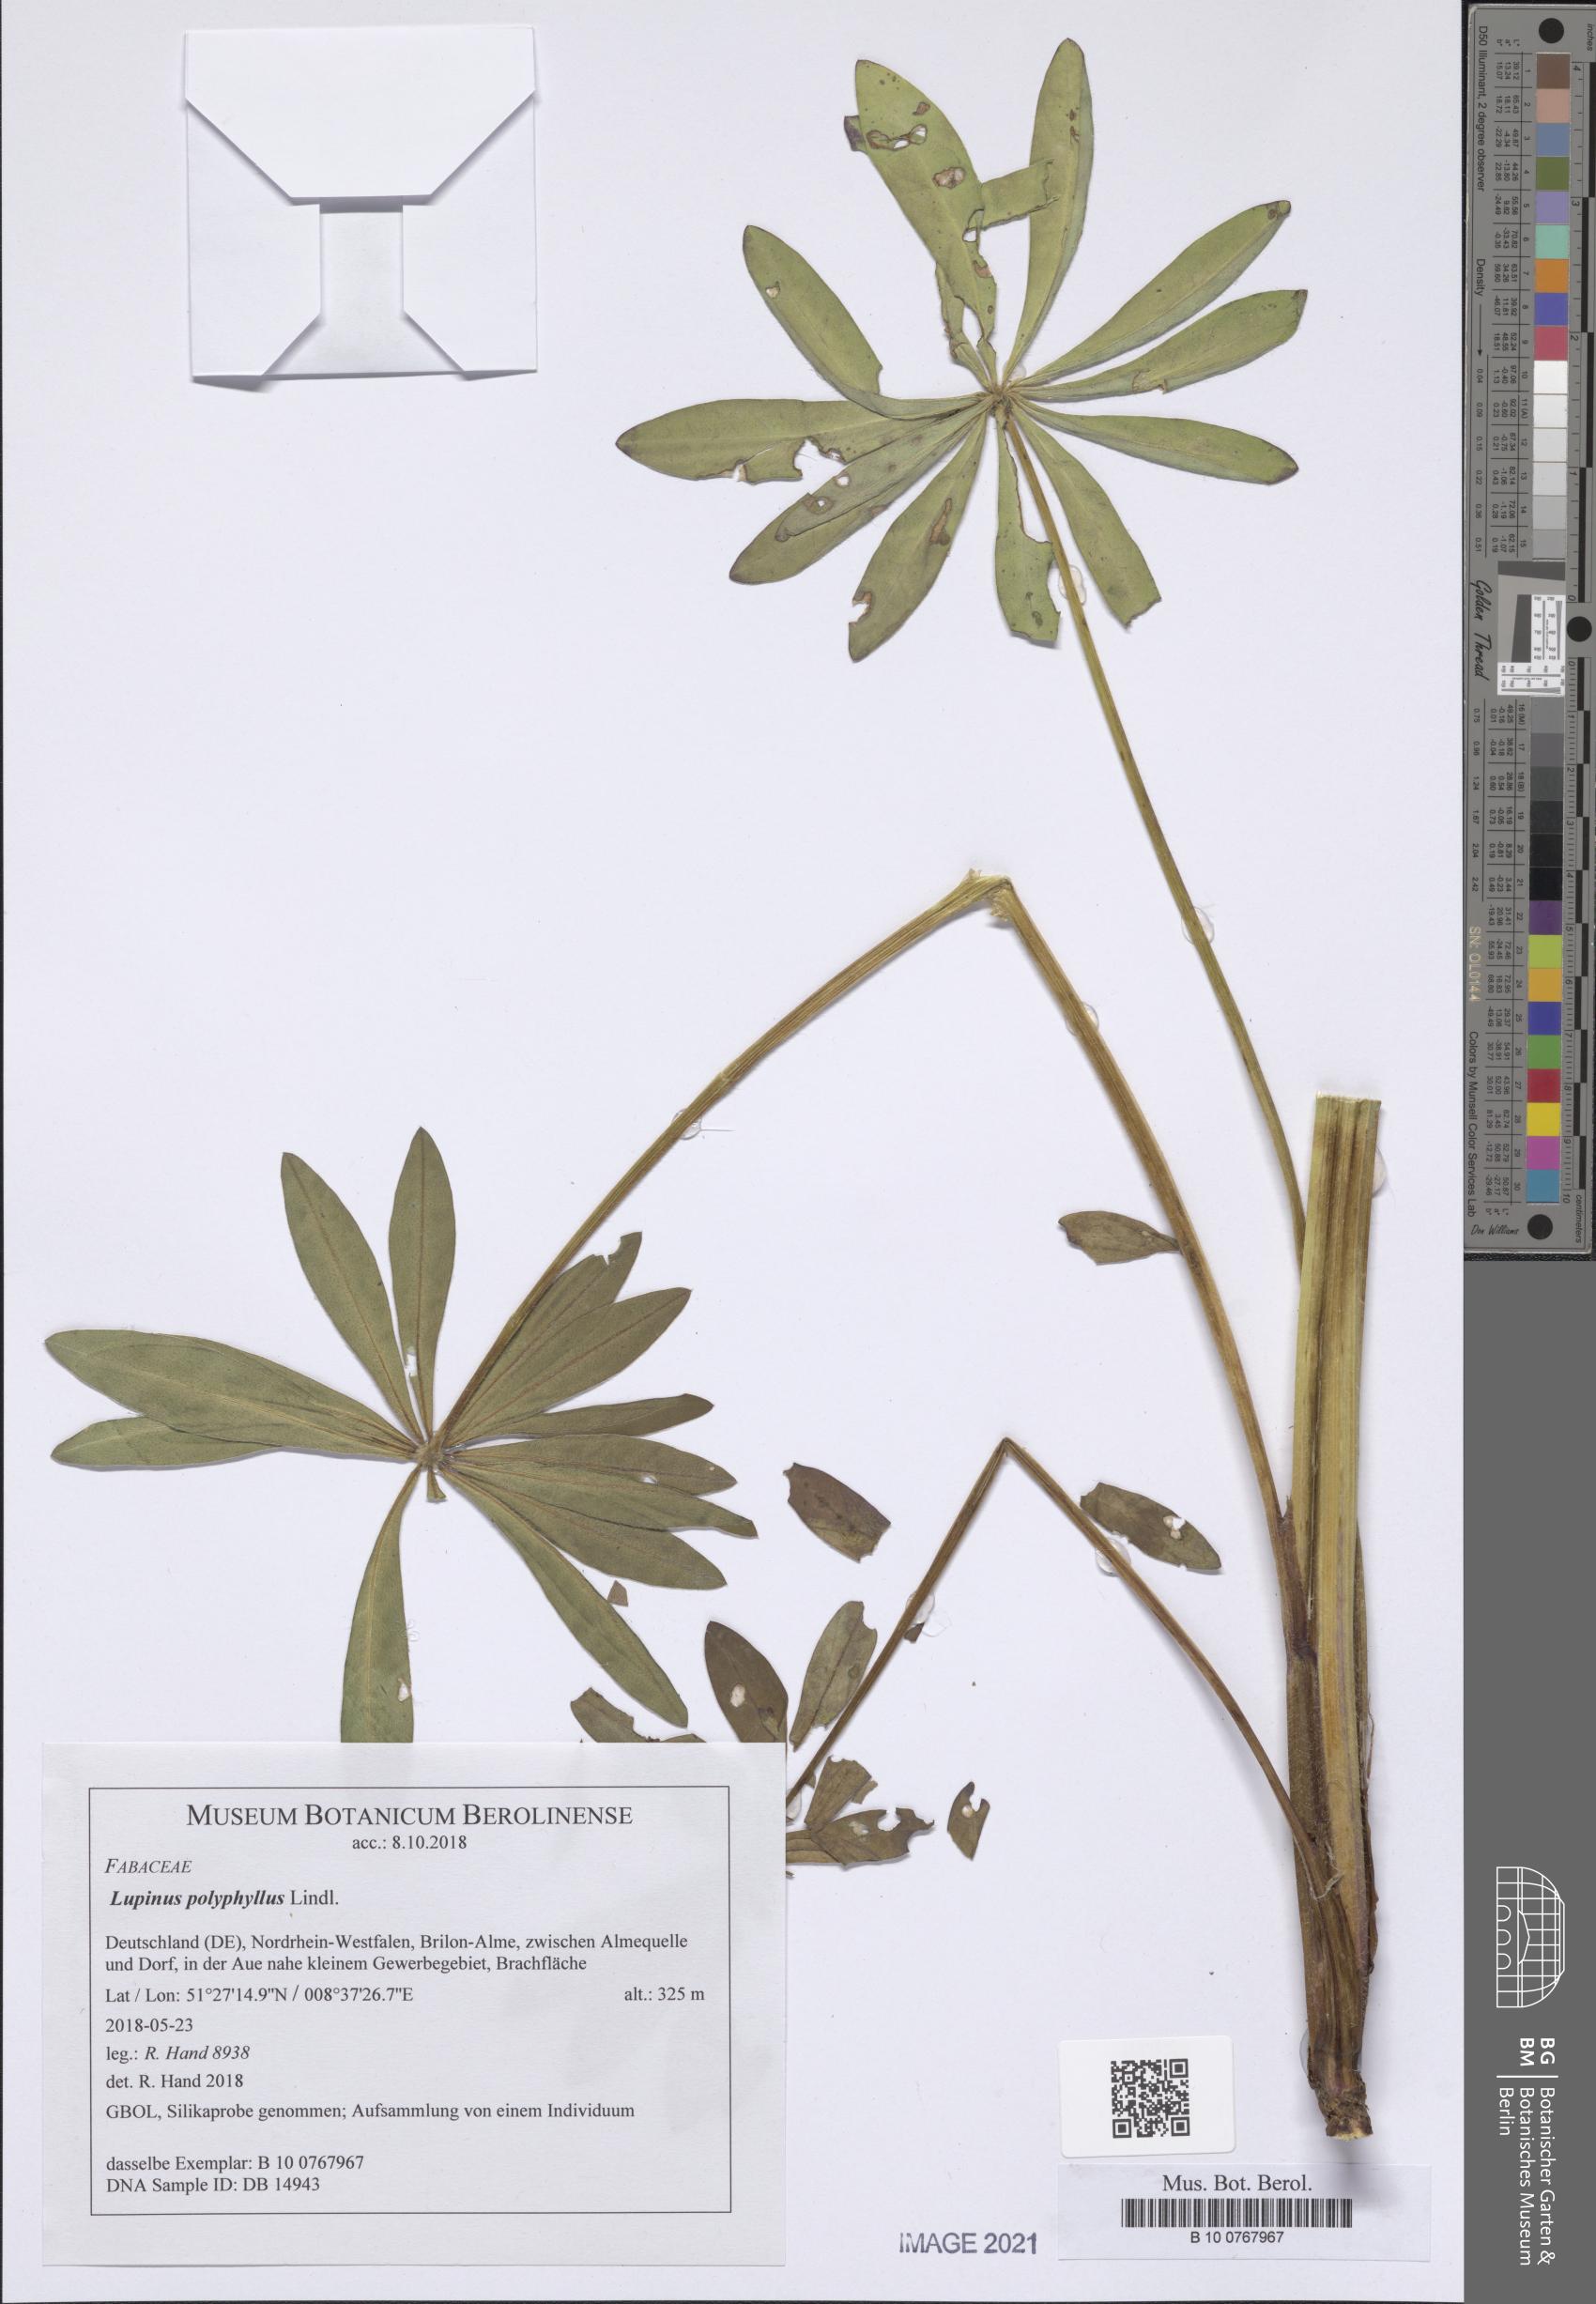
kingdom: Plantae
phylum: Tracheophyta
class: Magnoliopsida
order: Fabales
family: Fabaceae
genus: Lupinus
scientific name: Lupinus polyphyllus
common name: Garden lupin
